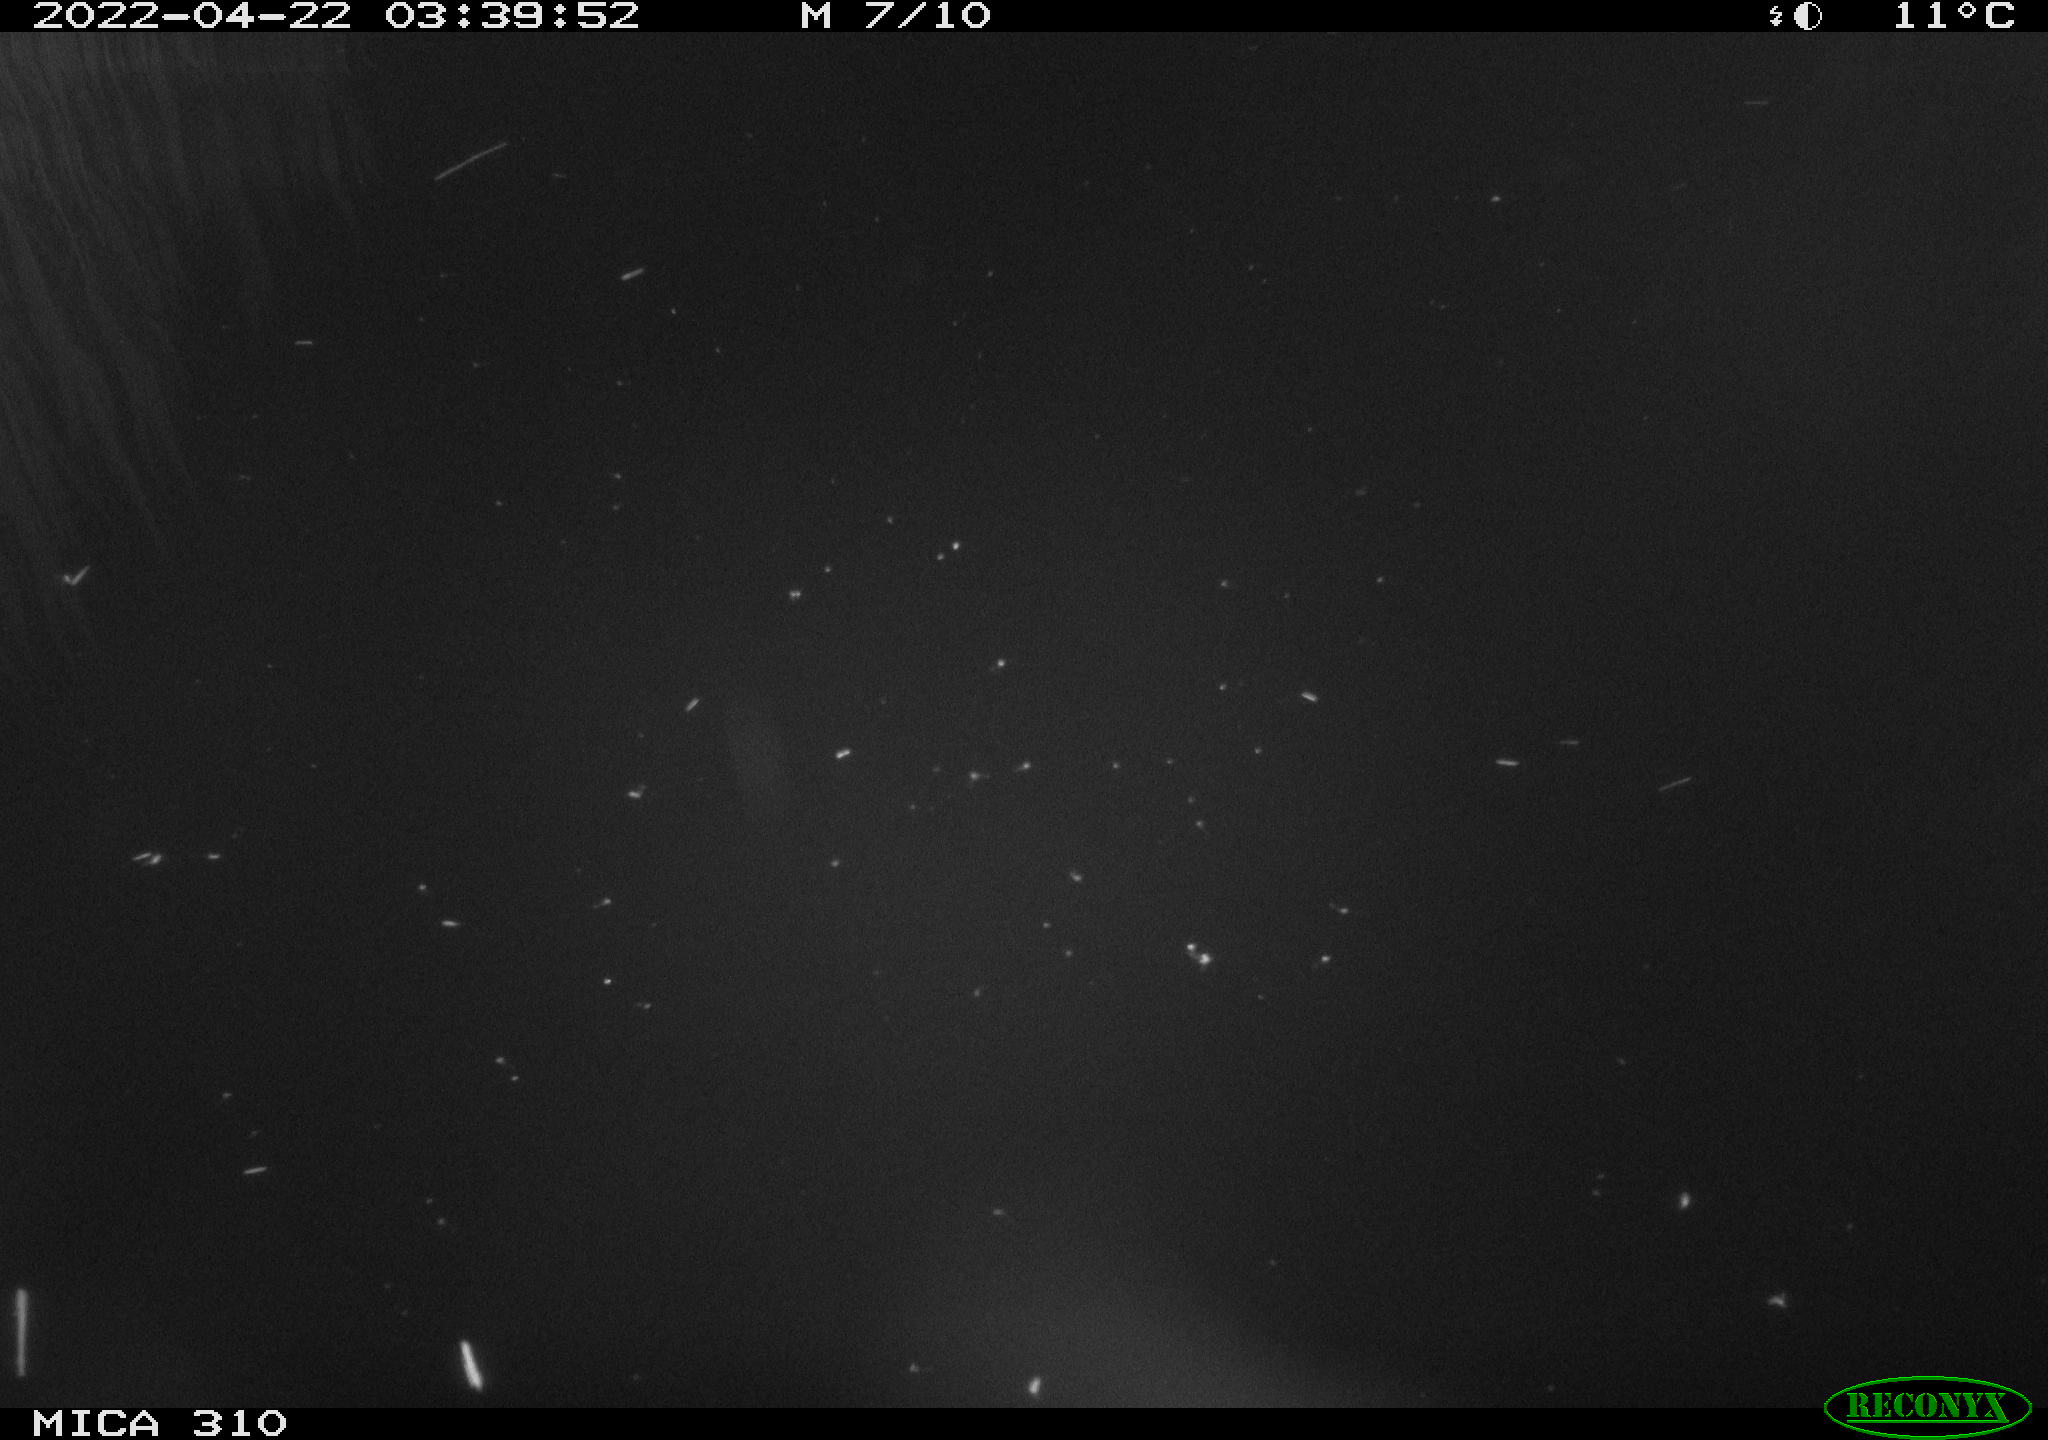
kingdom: Animalia
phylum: Chordata
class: Aves
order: Anseriformes
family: Anatidae
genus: Anas
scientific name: Anas platyrhynchos
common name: Mallard
